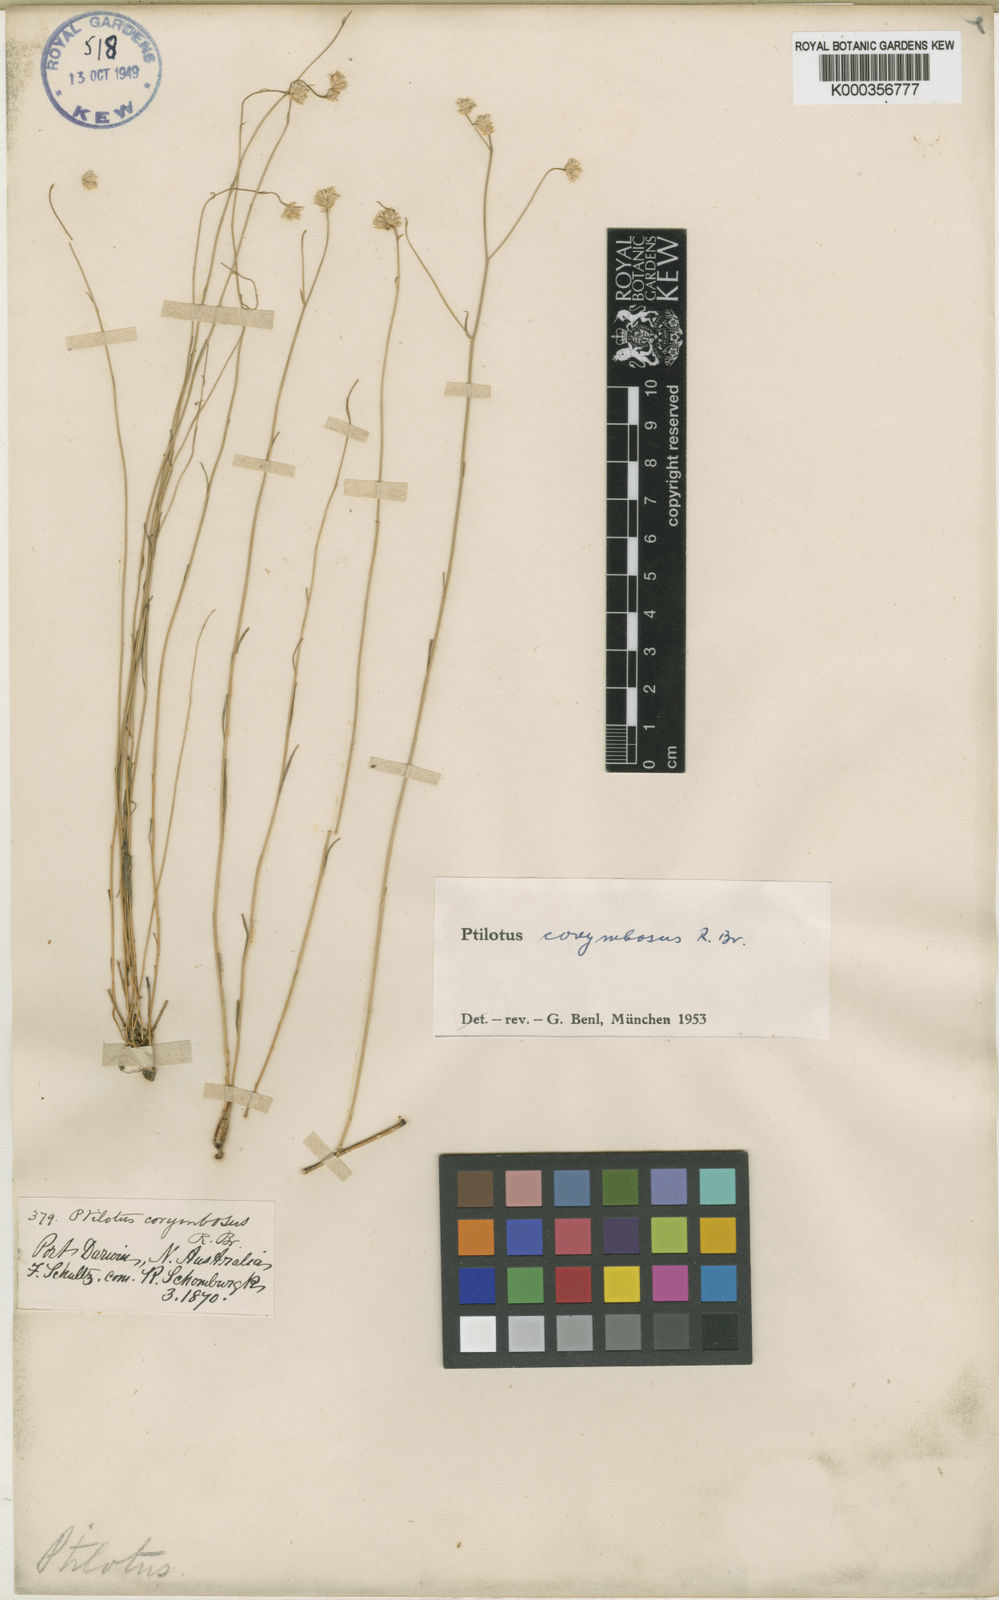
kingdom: Plantae
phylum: Tracheophyta
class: Magnoliopsida
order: Caryophyllales
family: Amaranthaceae
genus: Ptilotus
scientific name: Ptilotus corymbosus
